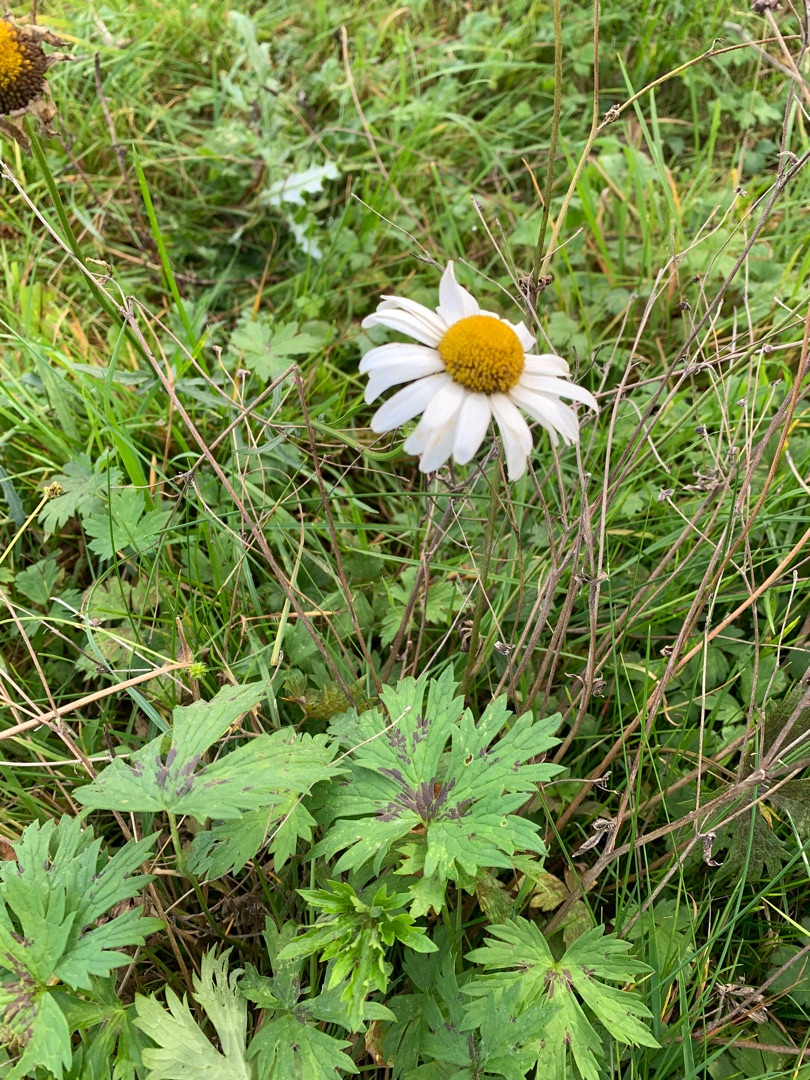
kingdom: Plantae
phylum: Tracheophyta
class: Magnoliopsida
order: Asterales
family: Asteraceae
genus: Leucanthemum
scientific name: Leucanthemum vulgare
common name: Hvid okseøje
